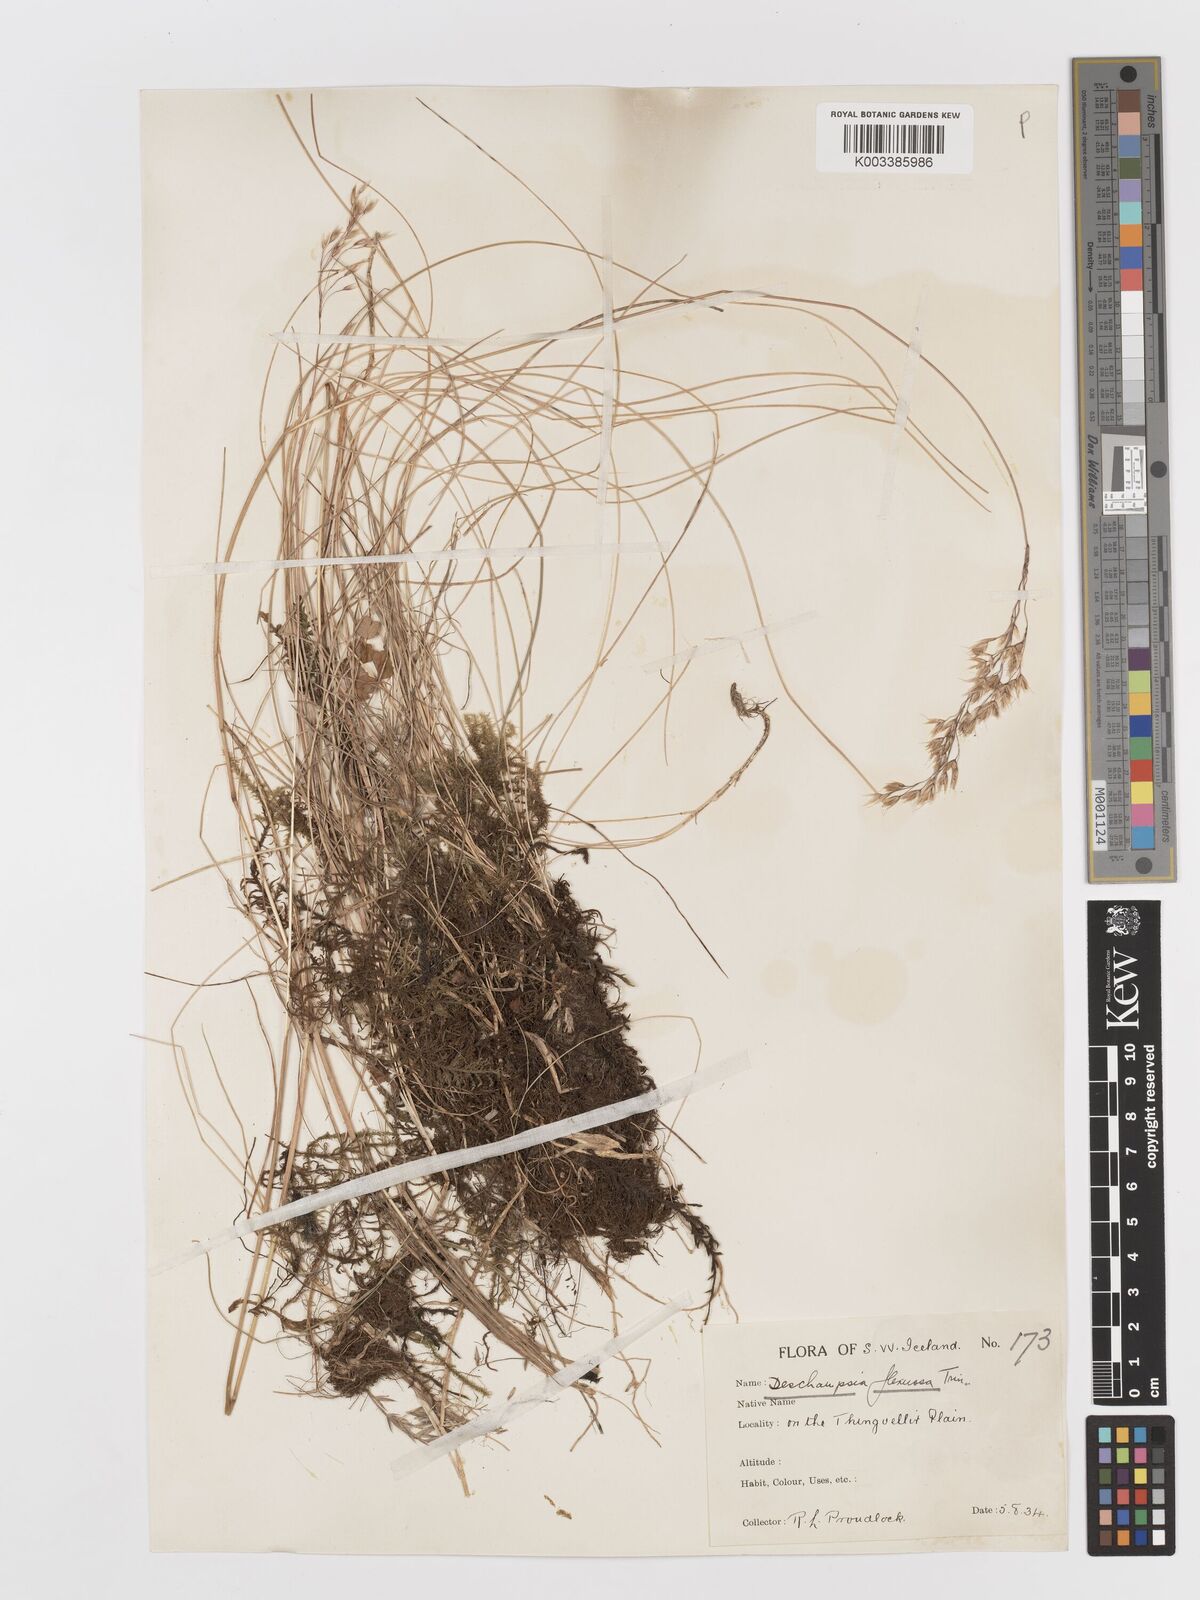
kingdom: Plantae
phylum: Tracheophyta
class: Liliopsida
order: Poales
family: Poaceae
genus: Avenella
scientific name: Avenella flexuosa
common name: Wavy hairgrass
